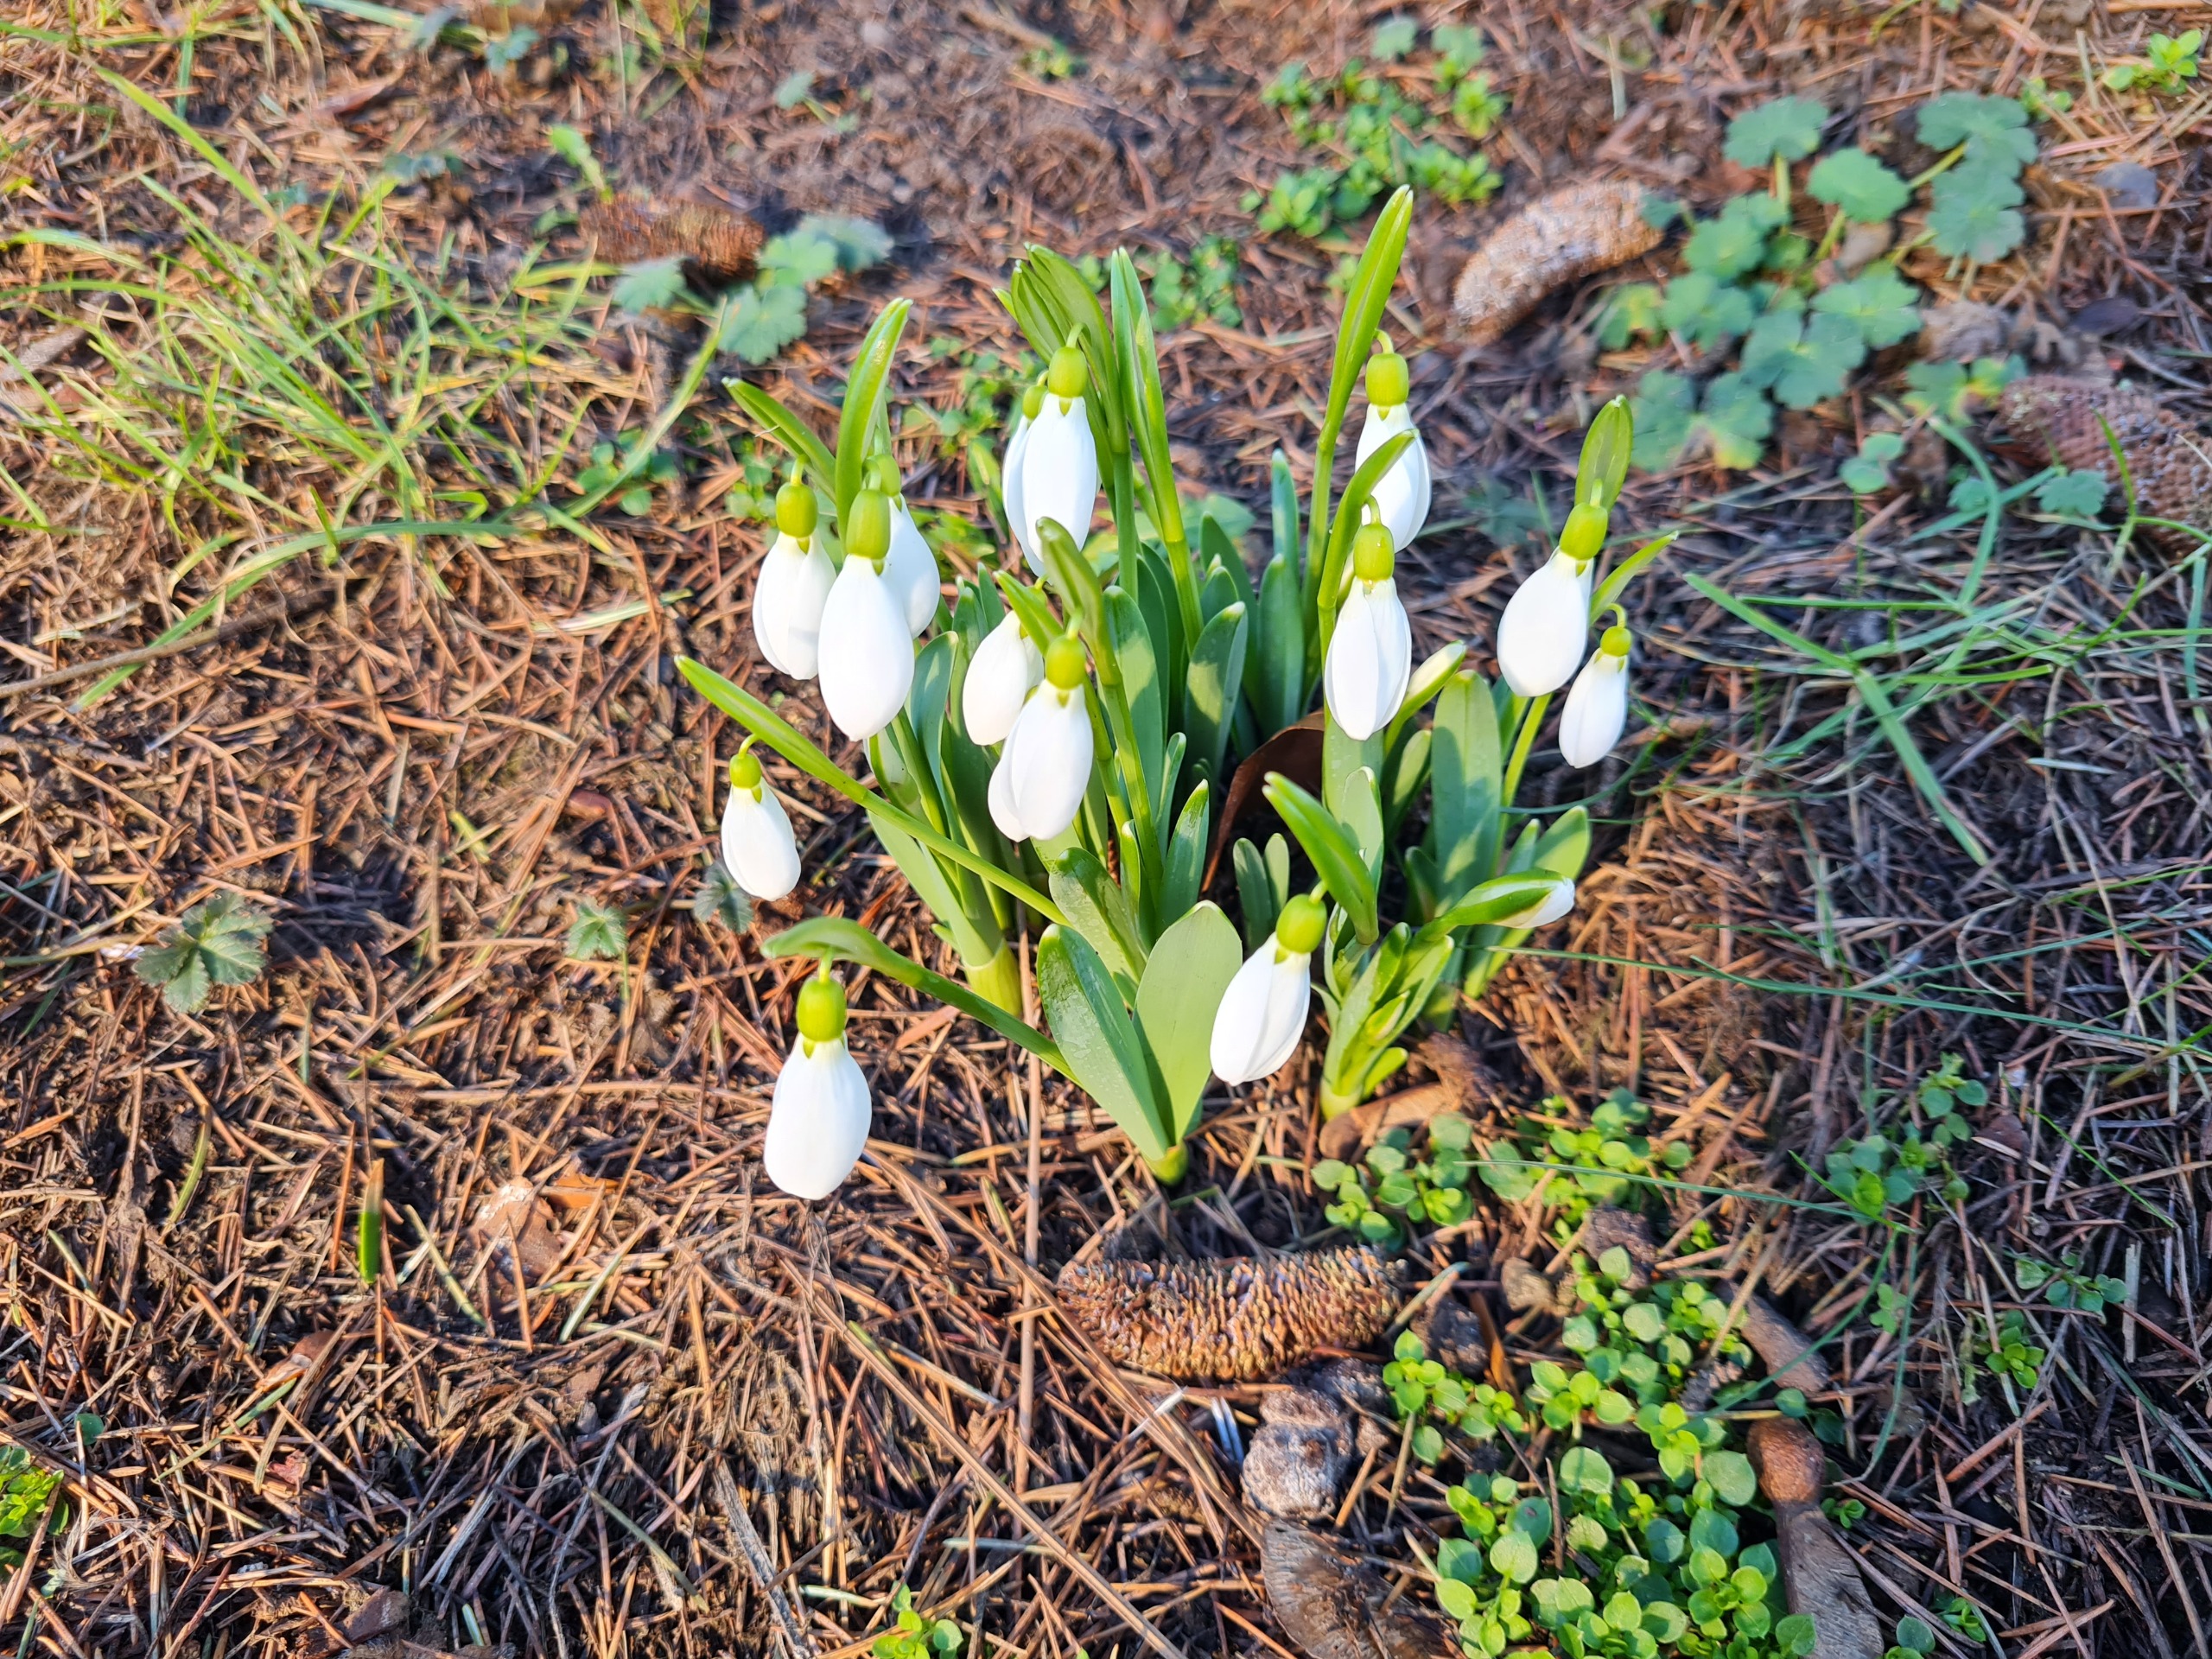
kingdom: Plantae
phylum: Tracheophyta
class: Liliopsida
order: Asparagales
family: Amaryllidaceae
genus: Galanthus
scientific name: Galanthus nivalis
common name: Vintergæk
